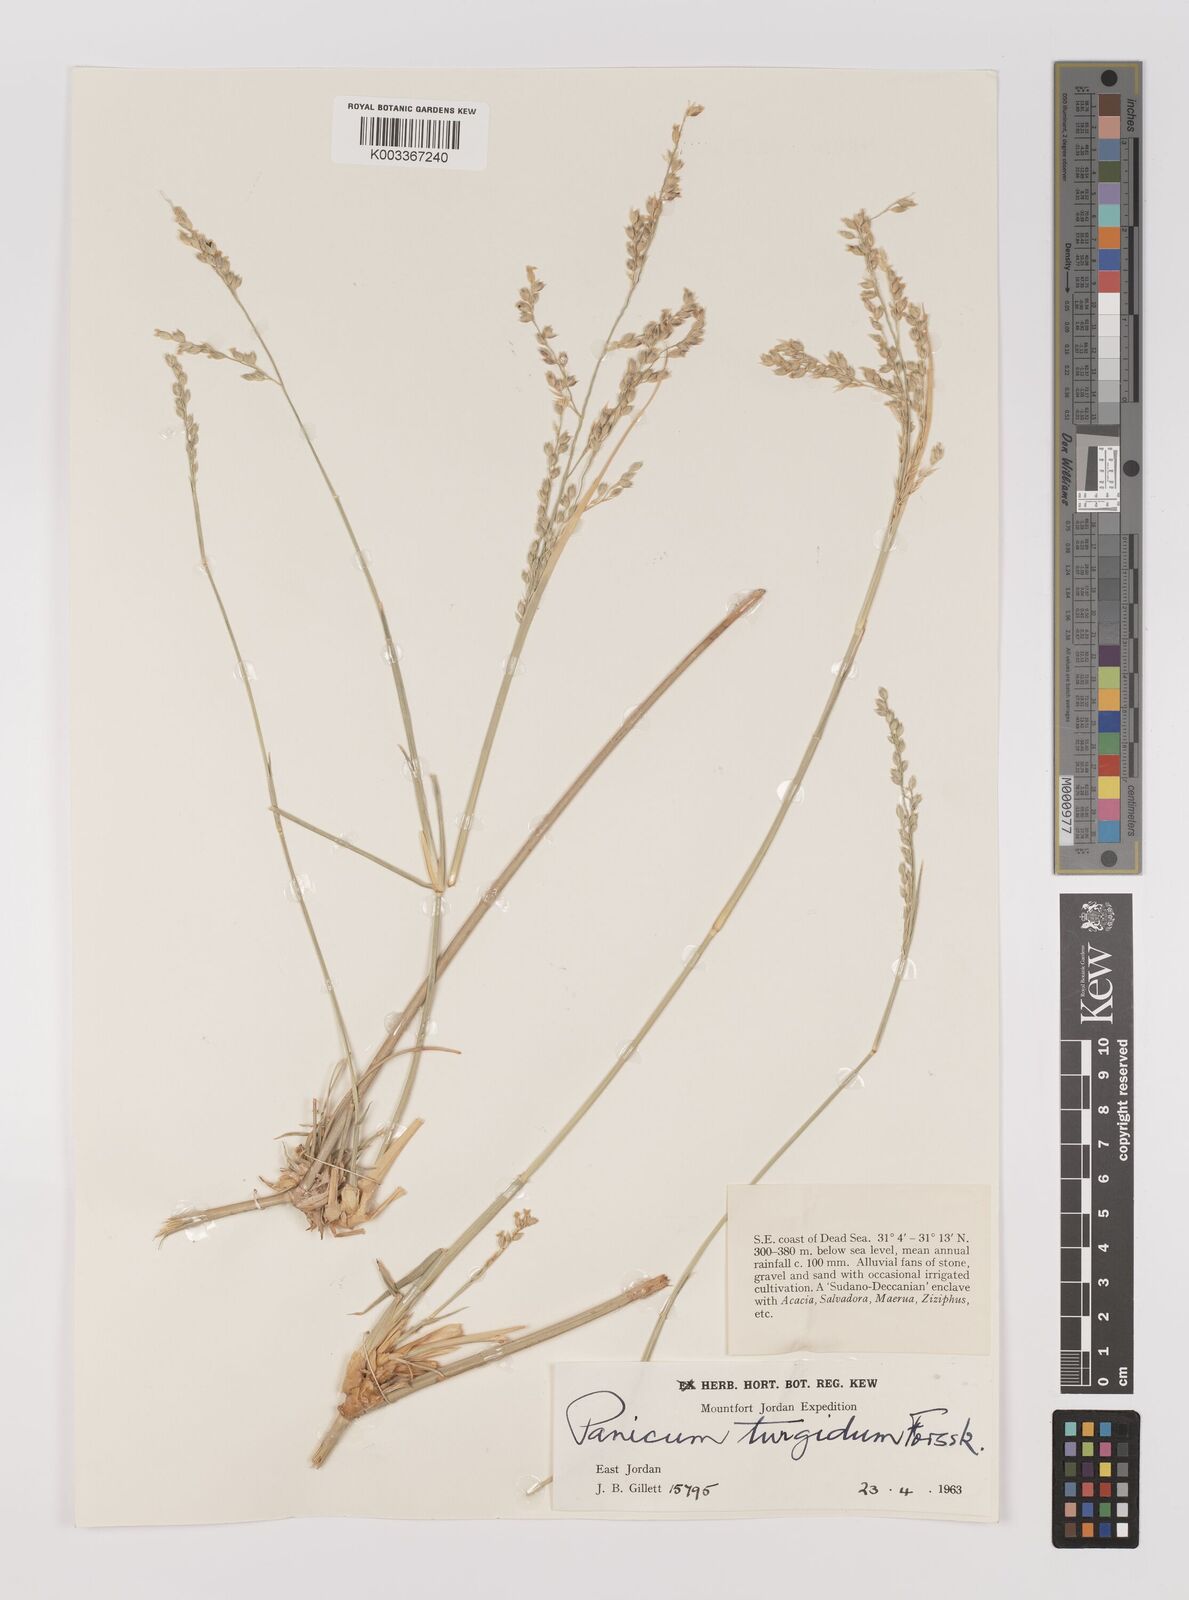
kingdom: Plantae
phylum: Tracheophyta
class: Liliopsida
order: Poales
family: Poaceae
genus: Panicum
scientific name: Panicum turgidum
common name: Desert grass
